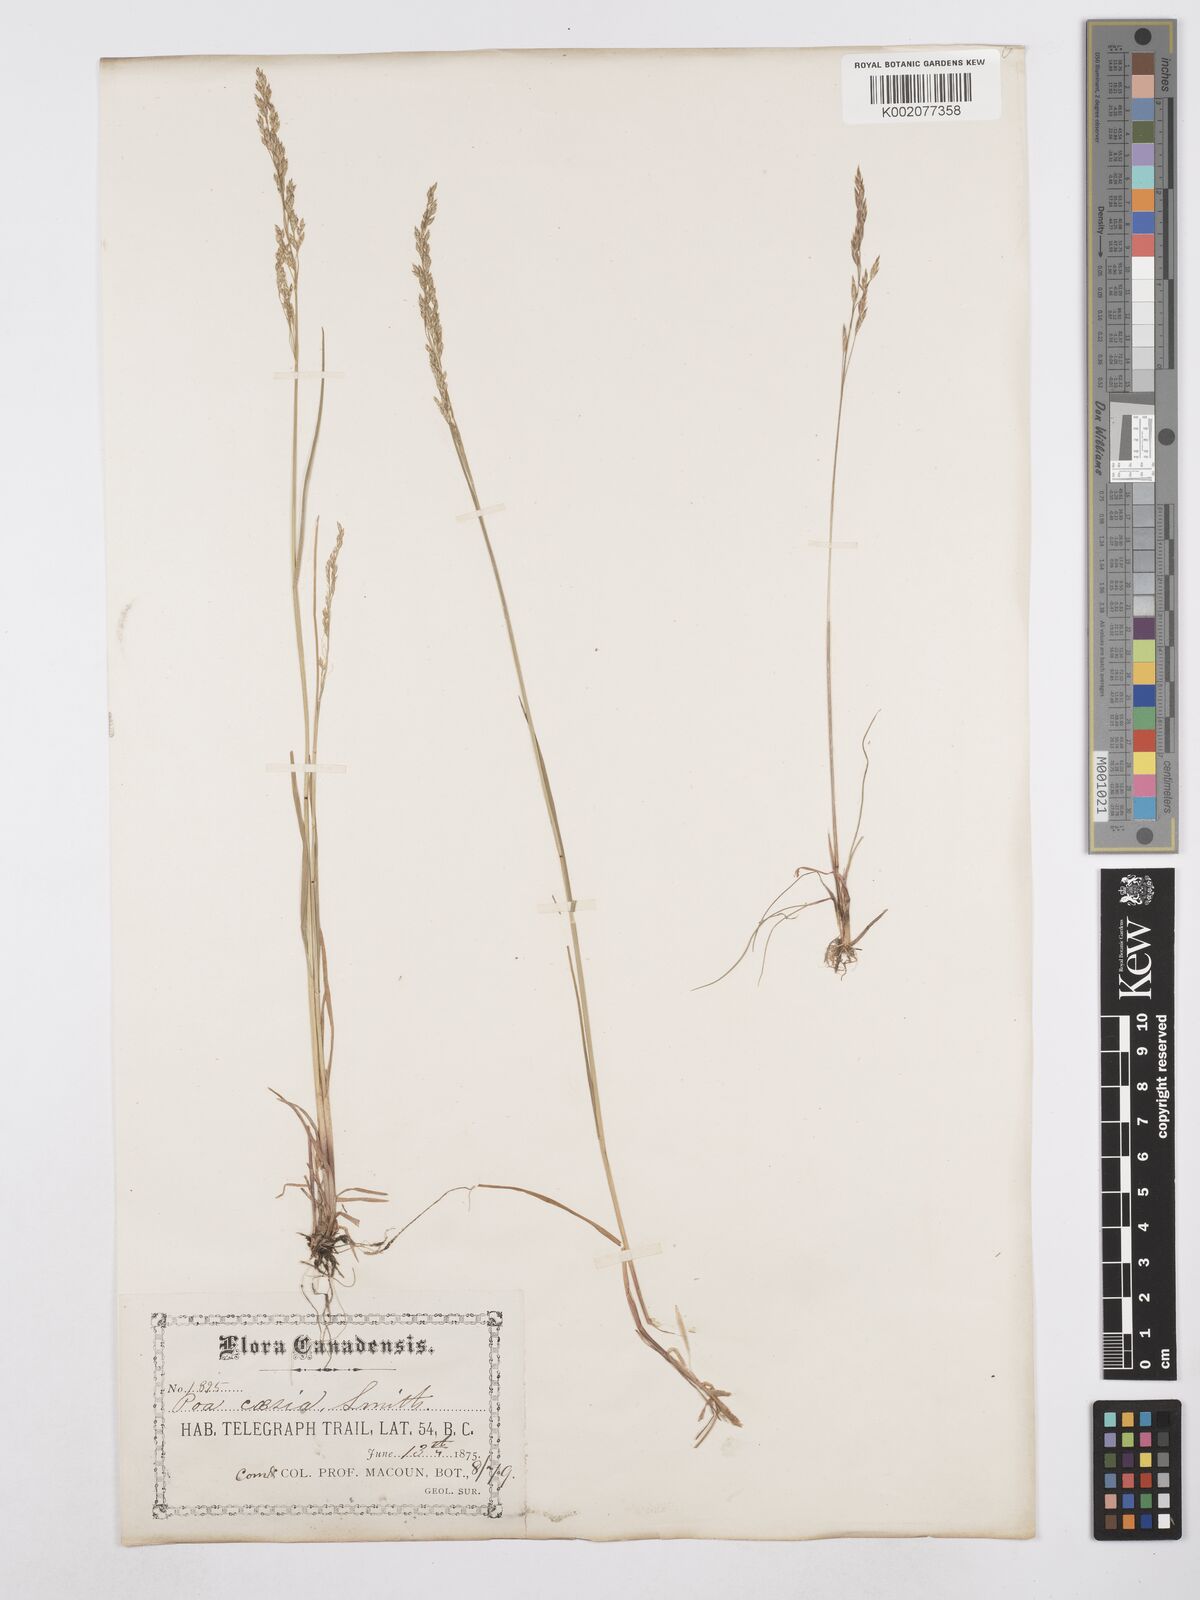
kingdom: Plantae
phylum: Tracheophyta
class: Liliopsida
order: Poales
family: Poaceae
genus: Poa
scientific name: Poa glauca
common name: Glaucous bluegrass
